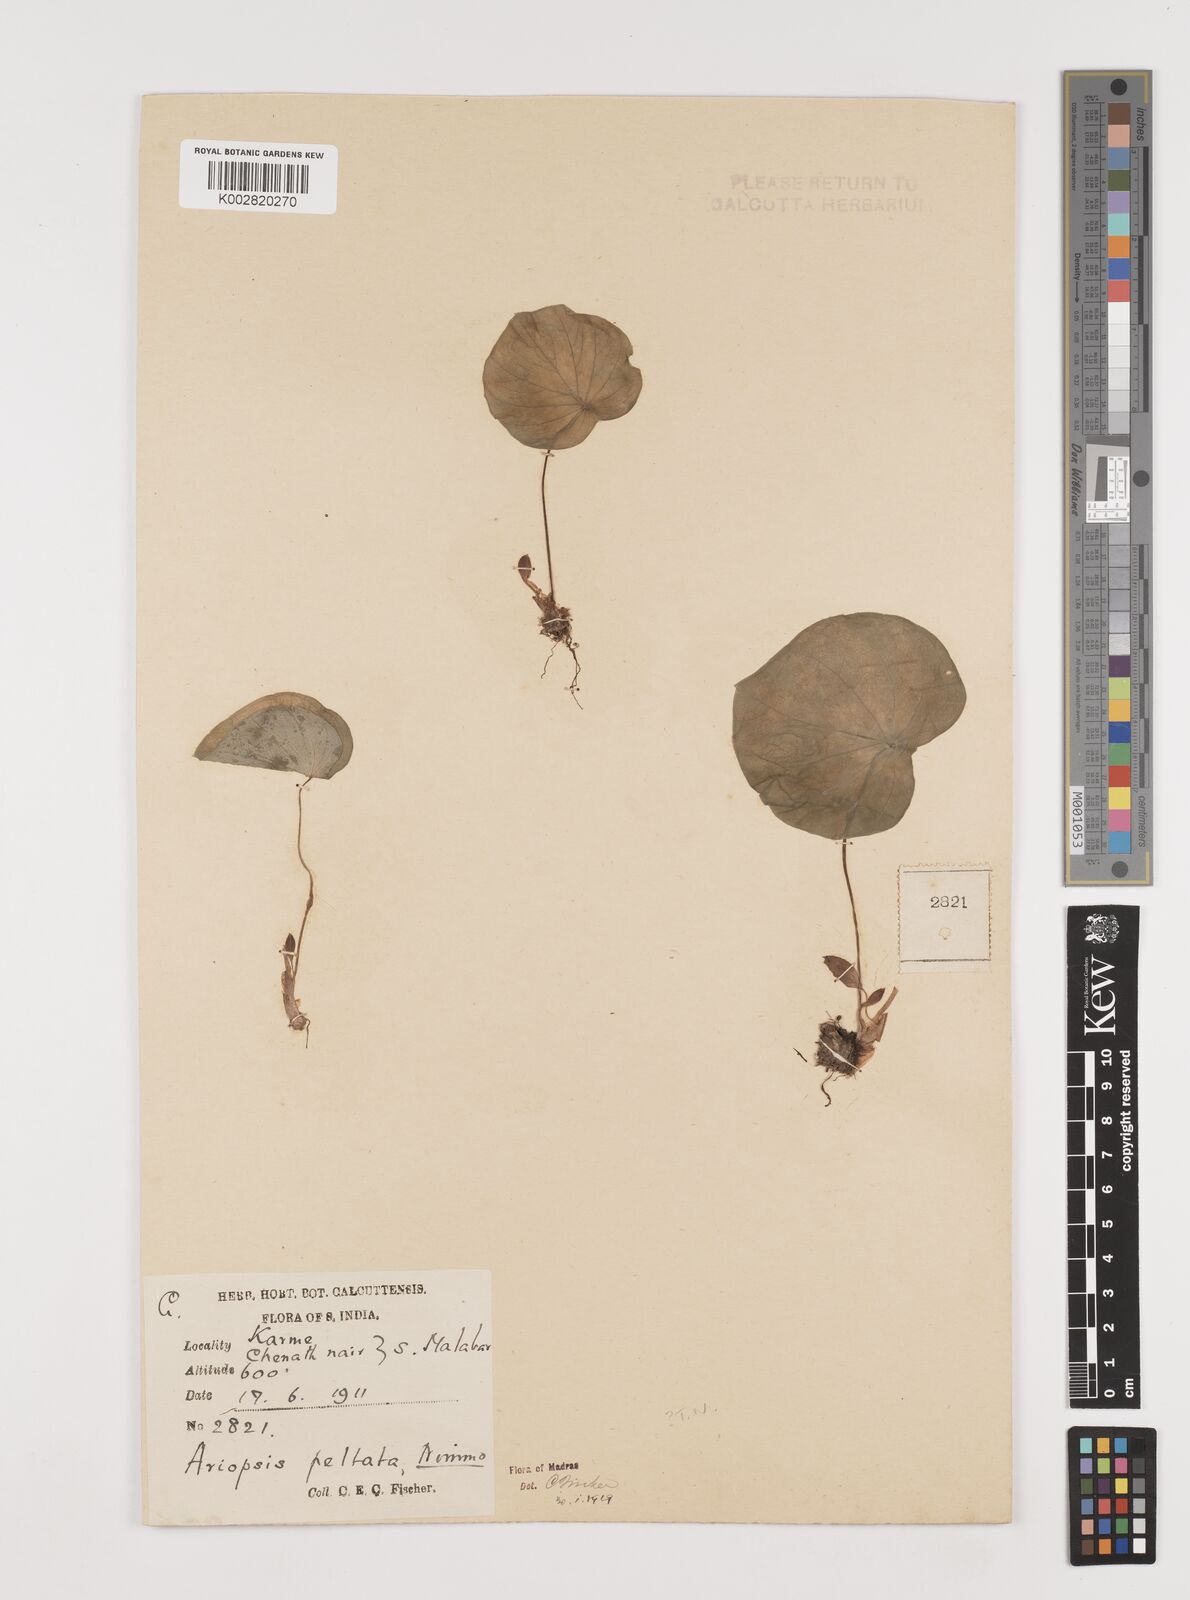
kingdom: Plantae
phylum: Tracheophyta
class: Liliopsida
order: Alismatales
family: Araceae
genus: Ariopsis
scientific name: Ariopsis peltata
